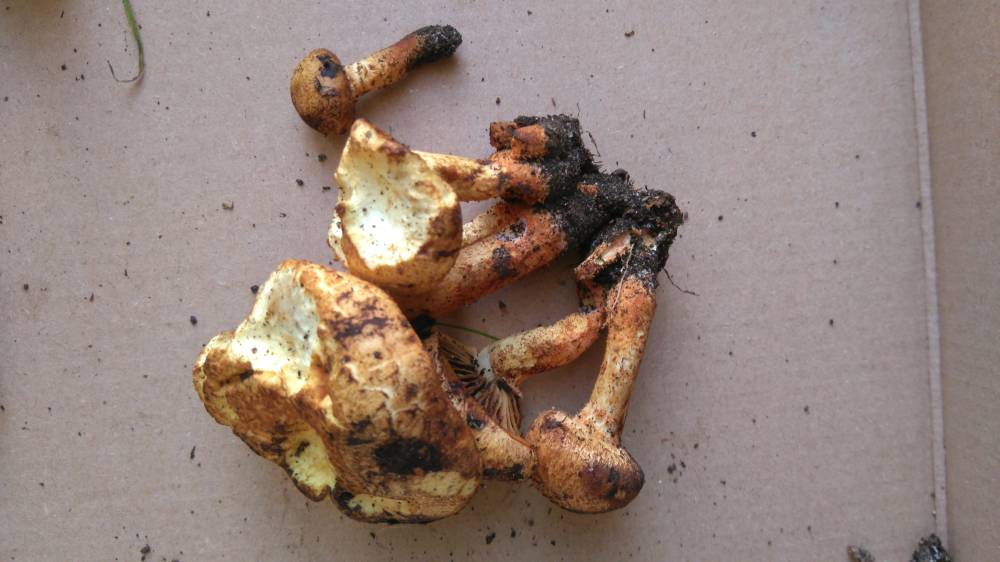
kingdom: Fungi
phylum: Basidiomycota
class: Agaricomycetes
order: Agaricales
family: Psathyrellaceae
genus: Lacrymaria
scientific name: Lacrymaria pyrotricha
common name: ildhåret mørkhat
